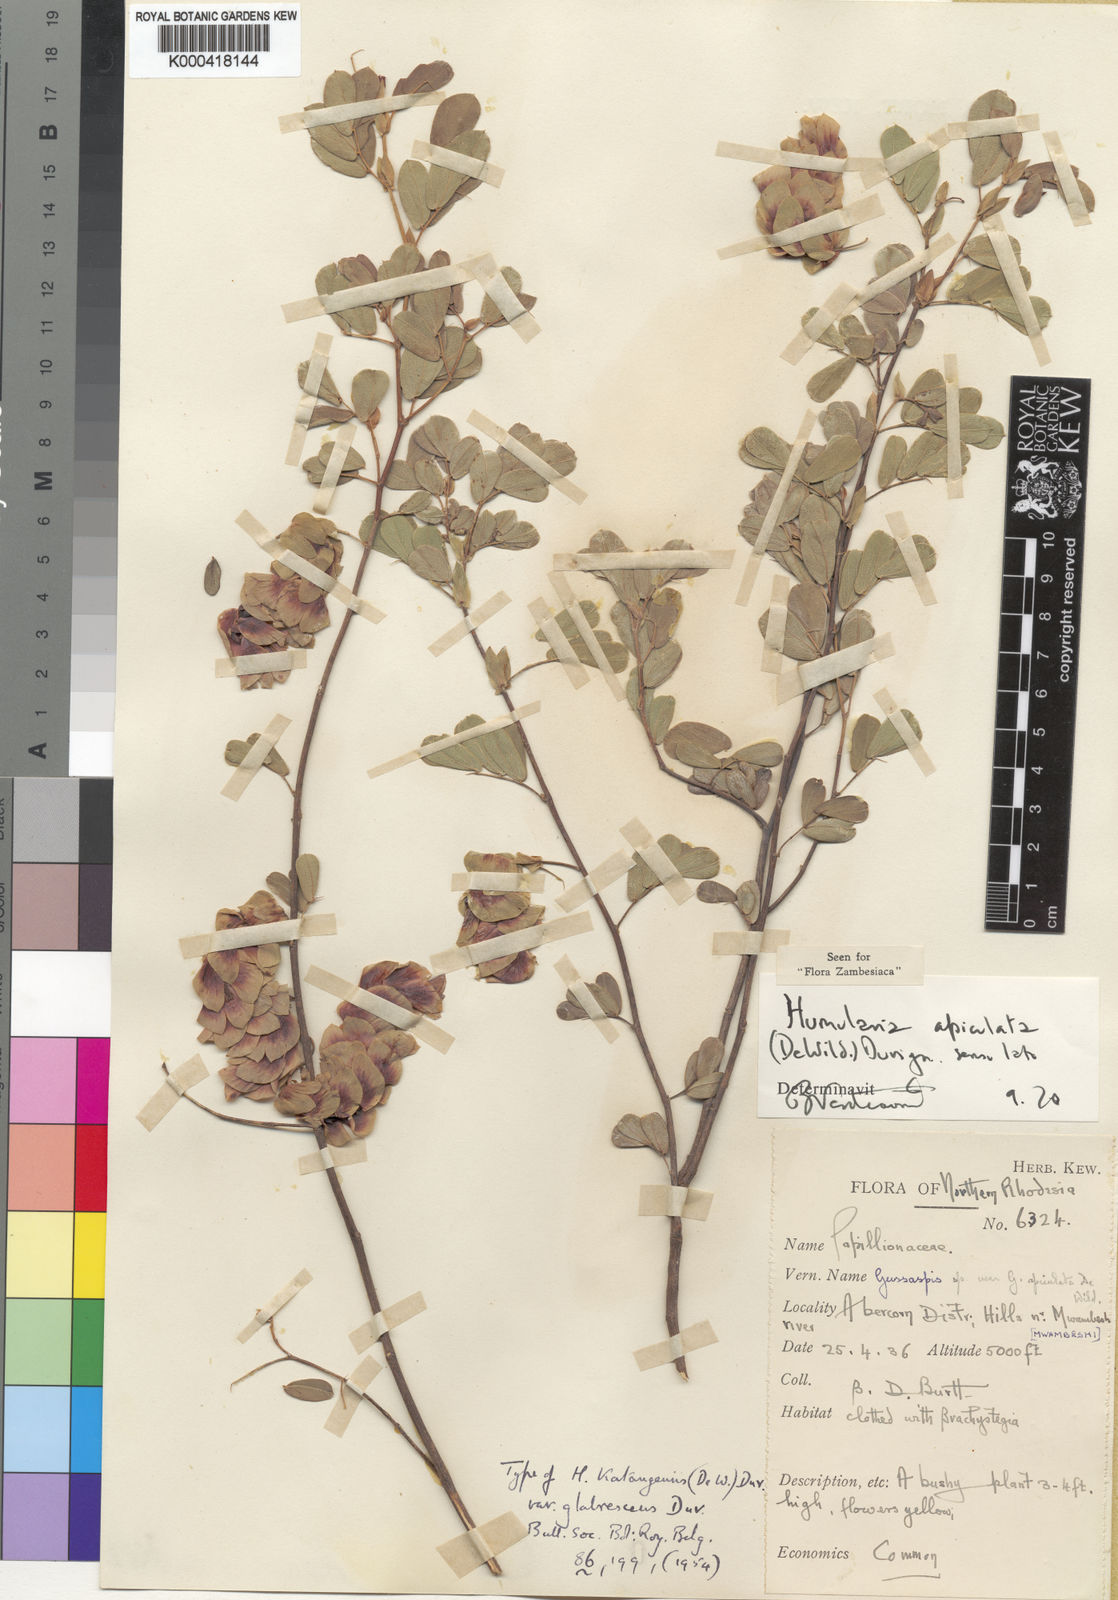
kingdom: Plantae
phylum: Tracheophyta
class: Magnoliopsida
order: Fabales
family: Fabaceae
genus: Humularia
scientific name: Humularia apiculata
